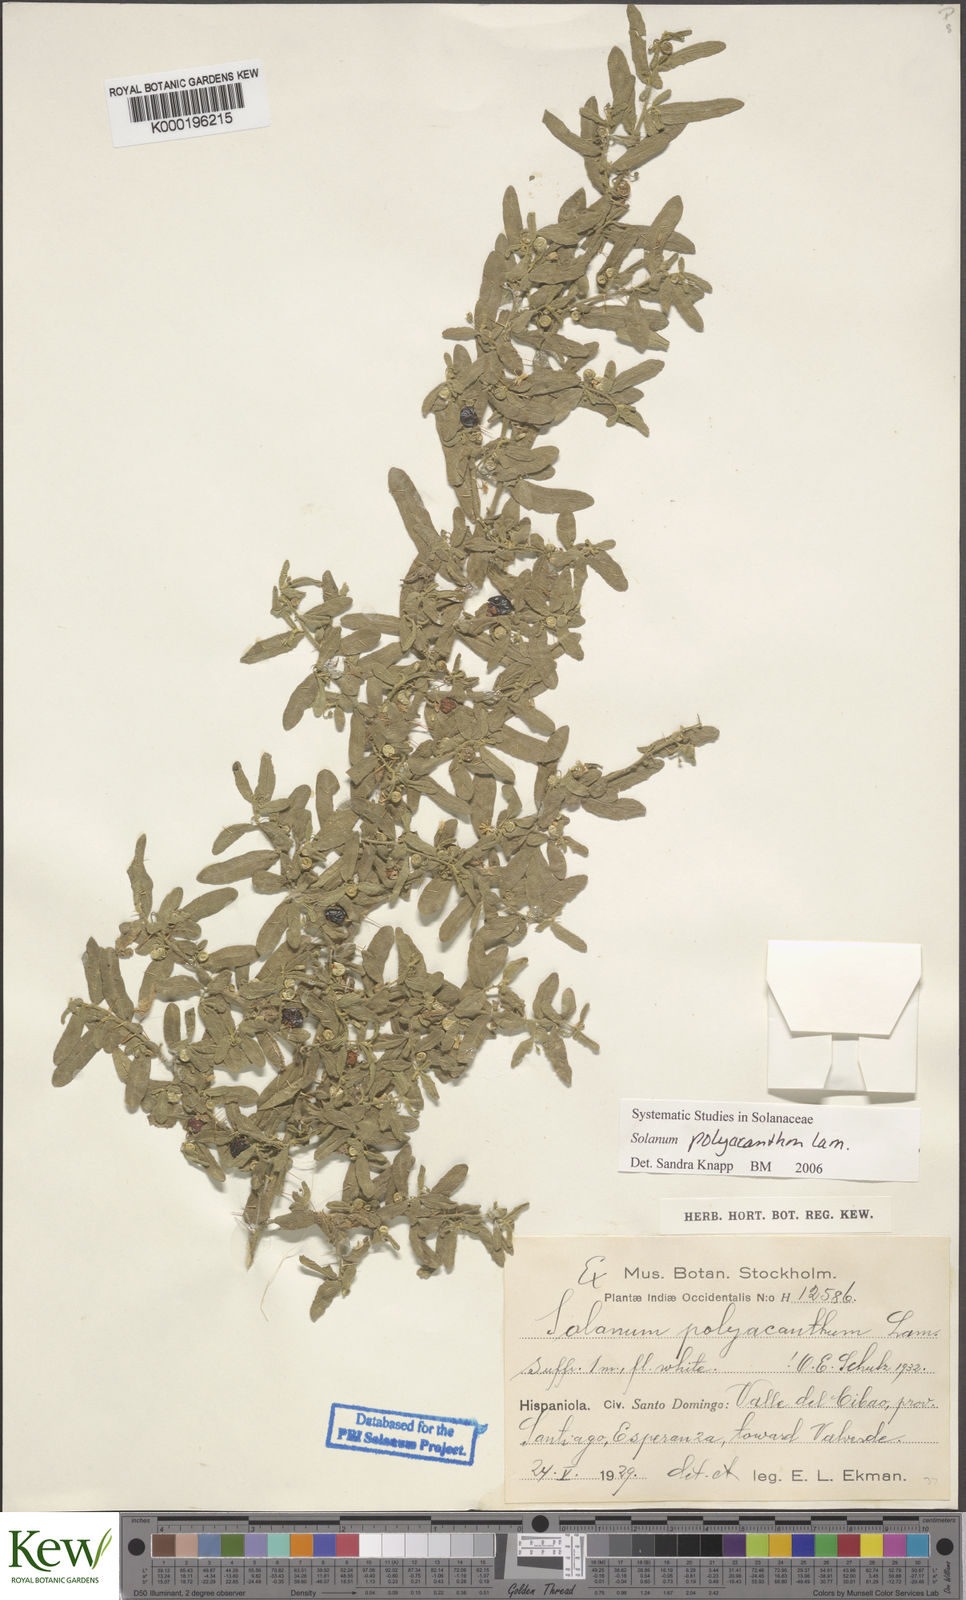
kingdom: Plantae
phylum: Tracheophyta
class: Magnoliopsida
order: Solanales
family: Solanaceae
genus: Solanum
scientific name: Solanum polyacanthos
